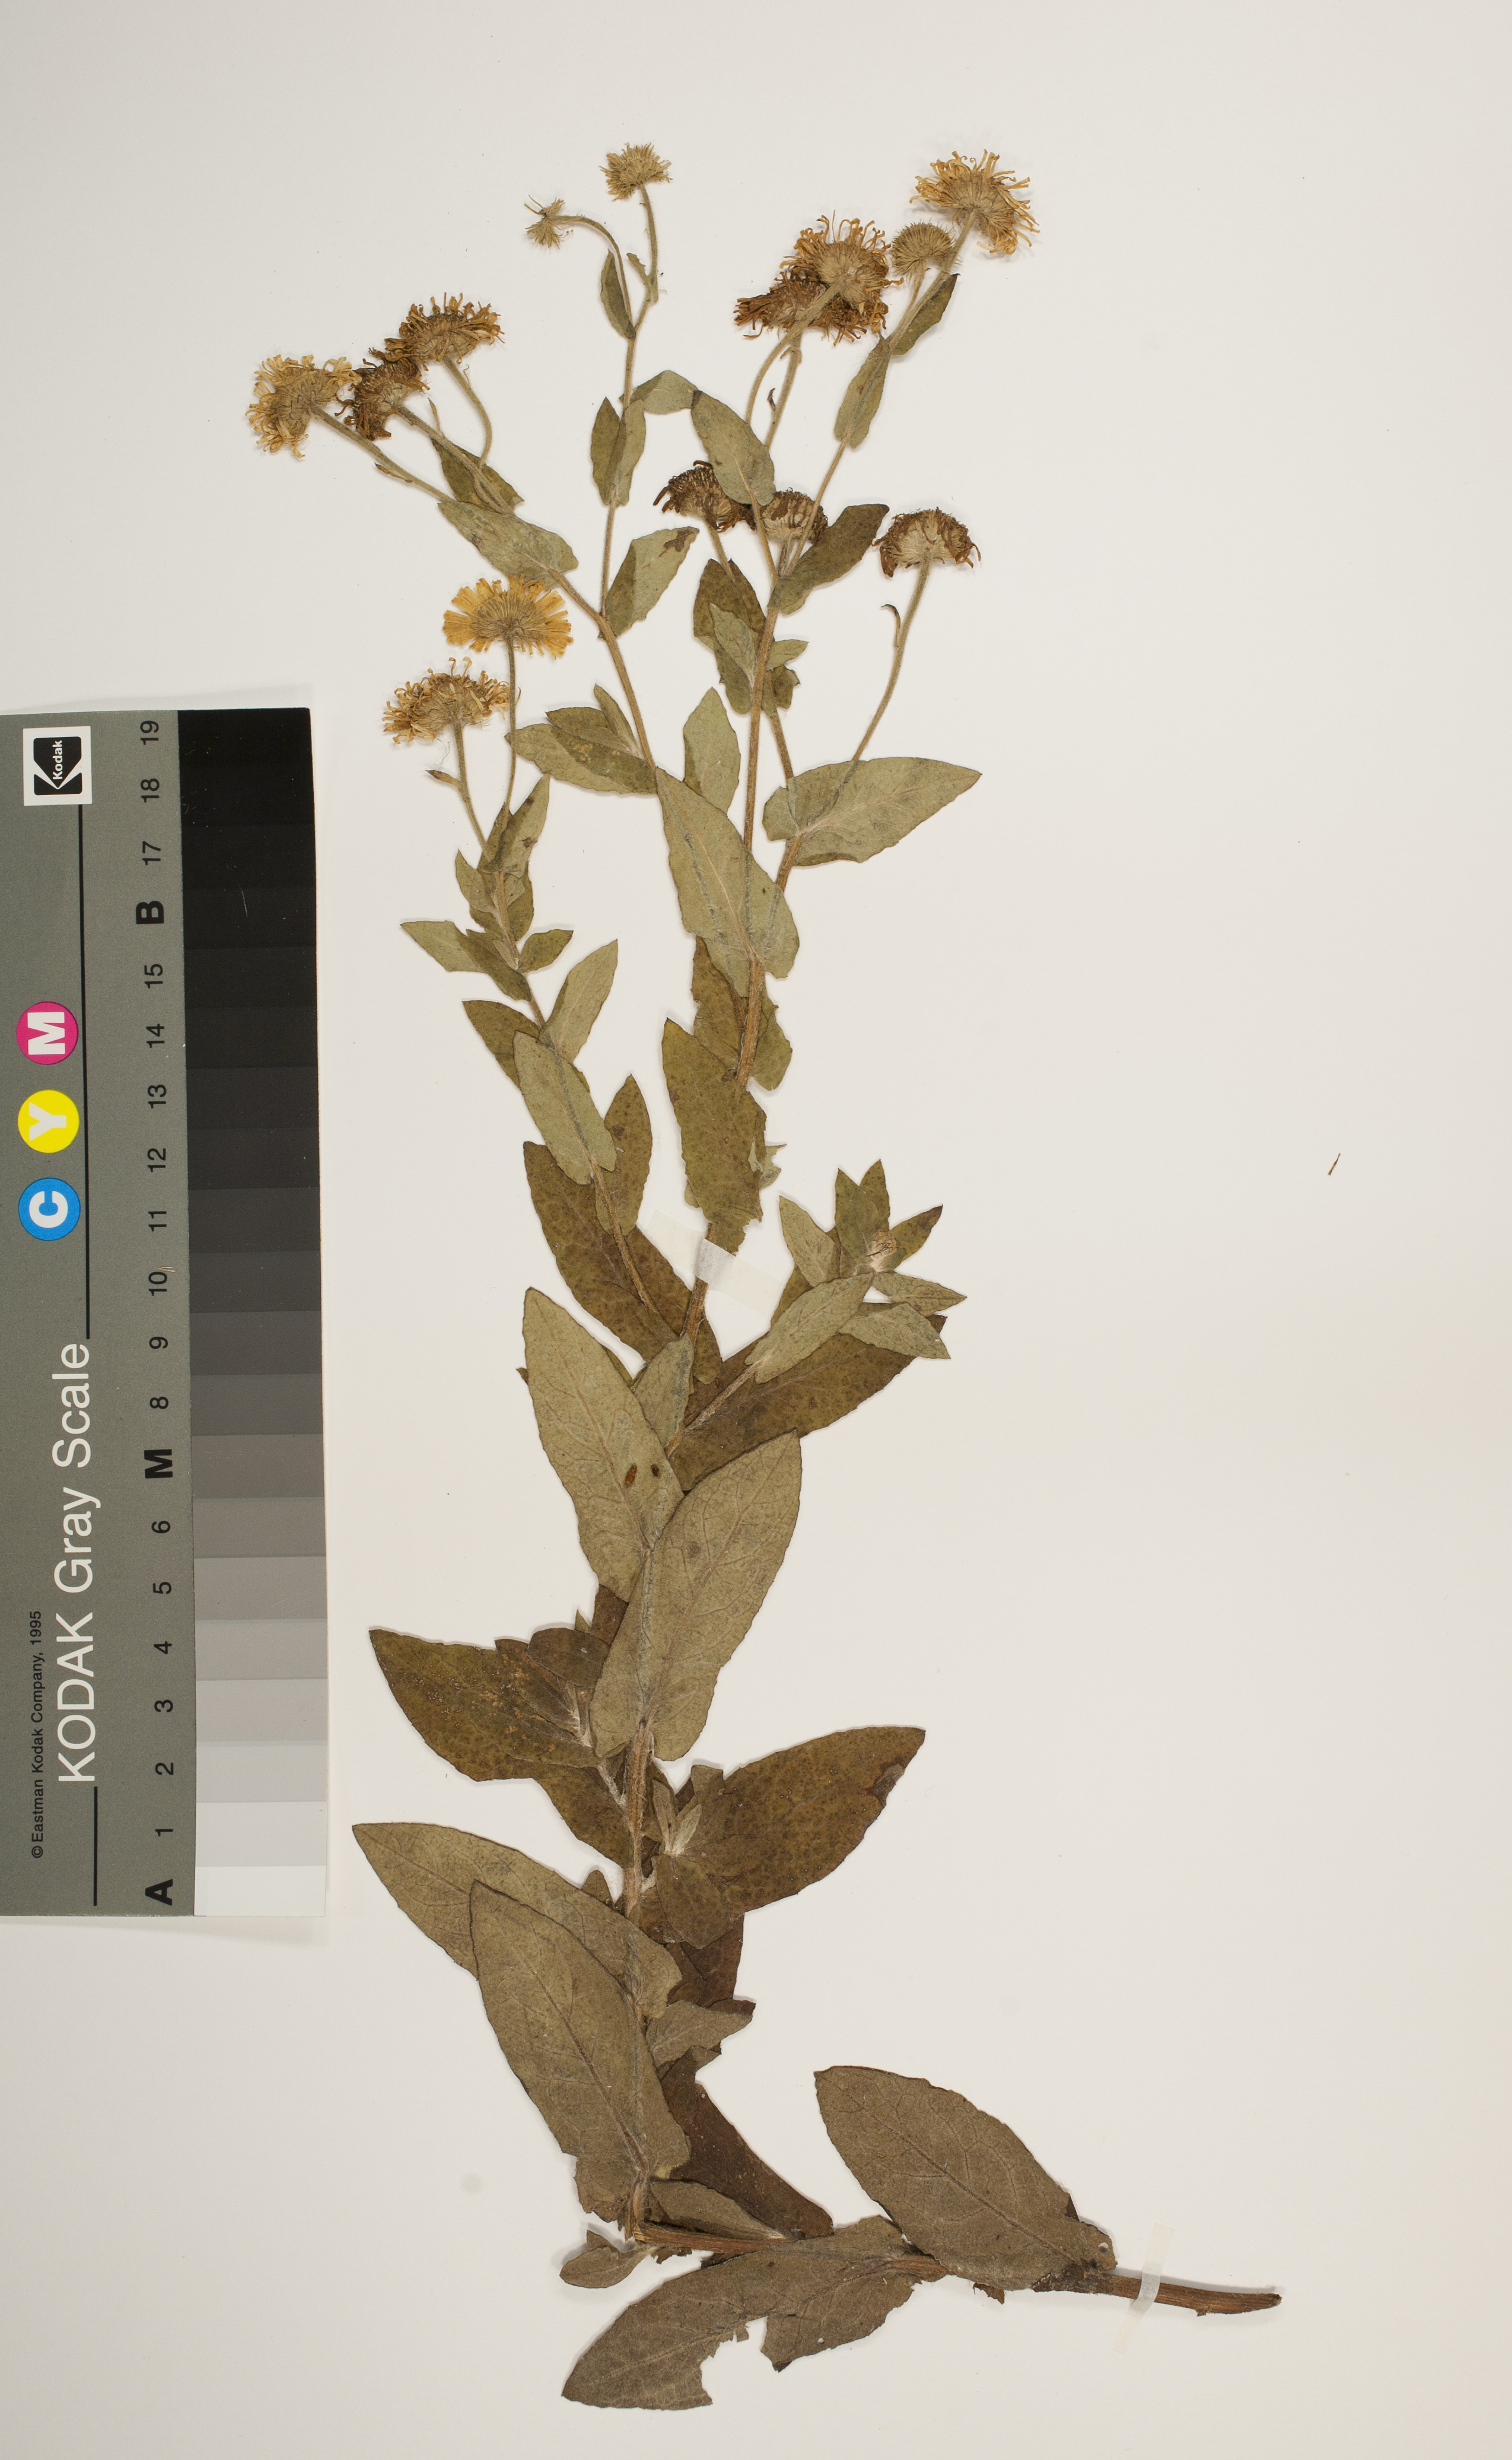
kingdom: Plantae
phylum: Tracheophyta
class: Magnoliopsida
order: Asterales
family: Asteraceae
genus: Pulicaria
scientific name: Pulicaria dysenterica
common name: Common fleabane
